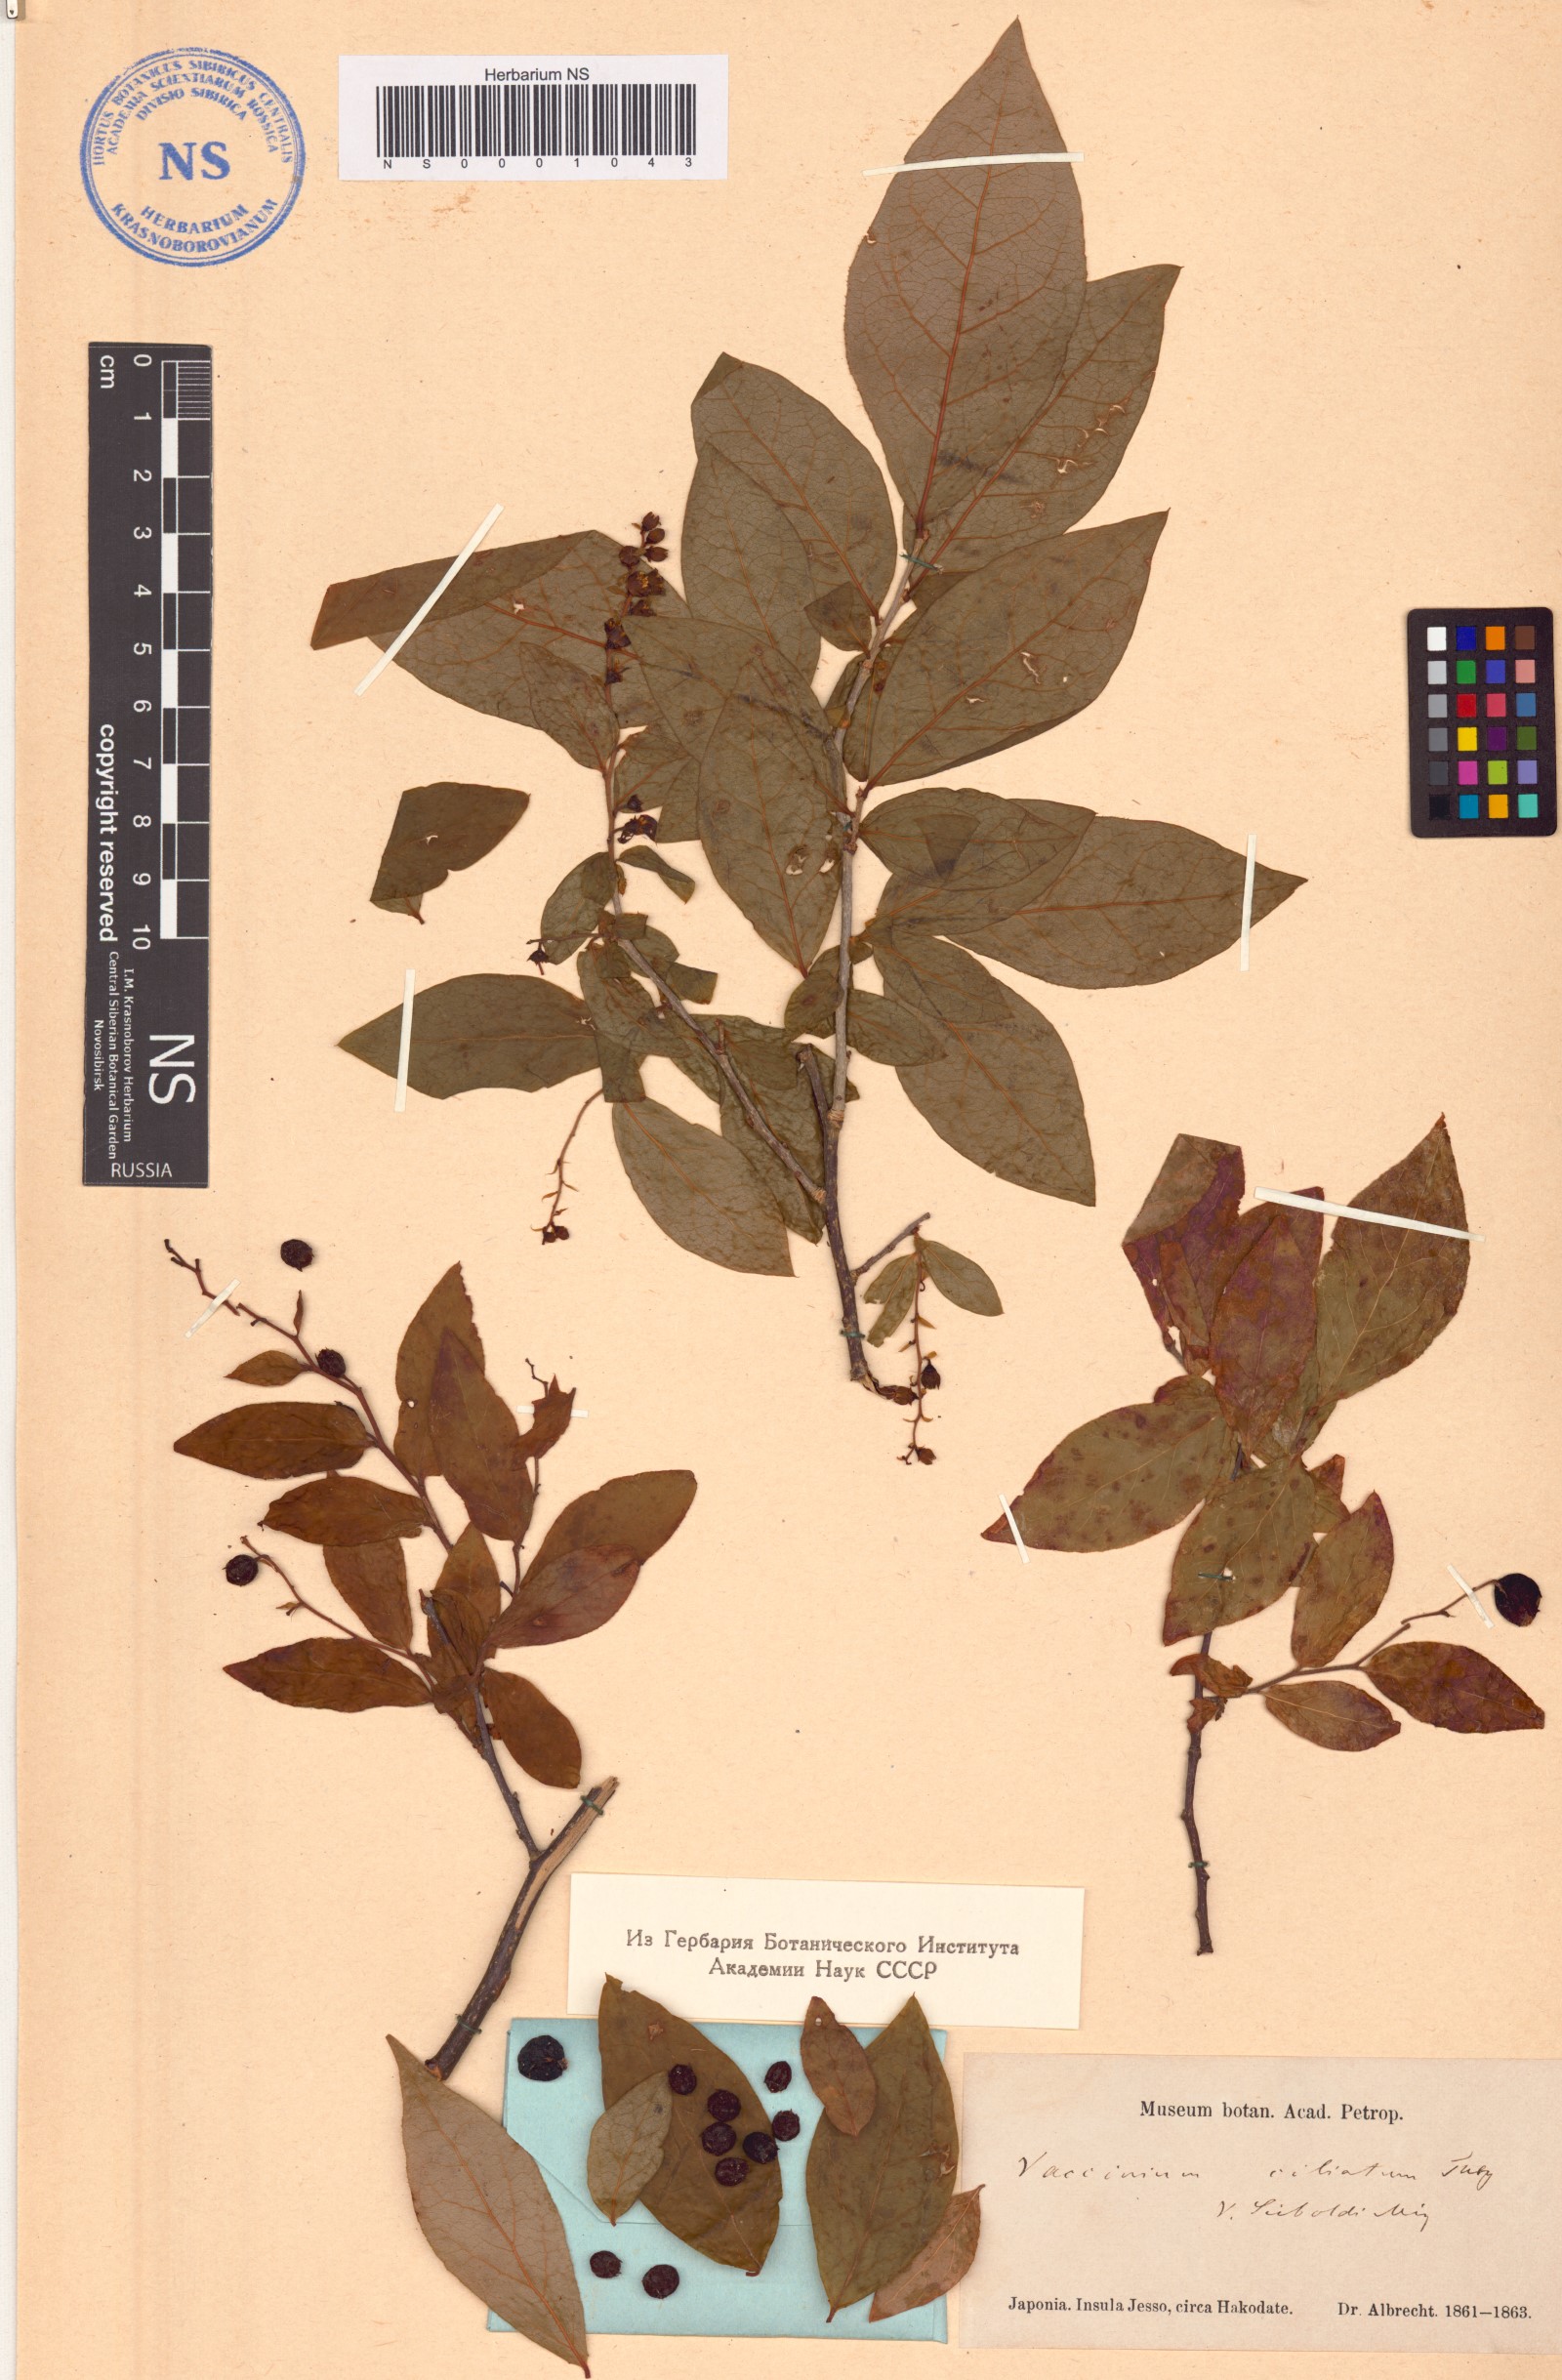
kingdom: Plantae
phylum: Tracheophyta
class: Magnoliopsida
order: Ericales
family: Ericaceae
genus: Vaccinium
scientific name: Vaccinium ciliatum
